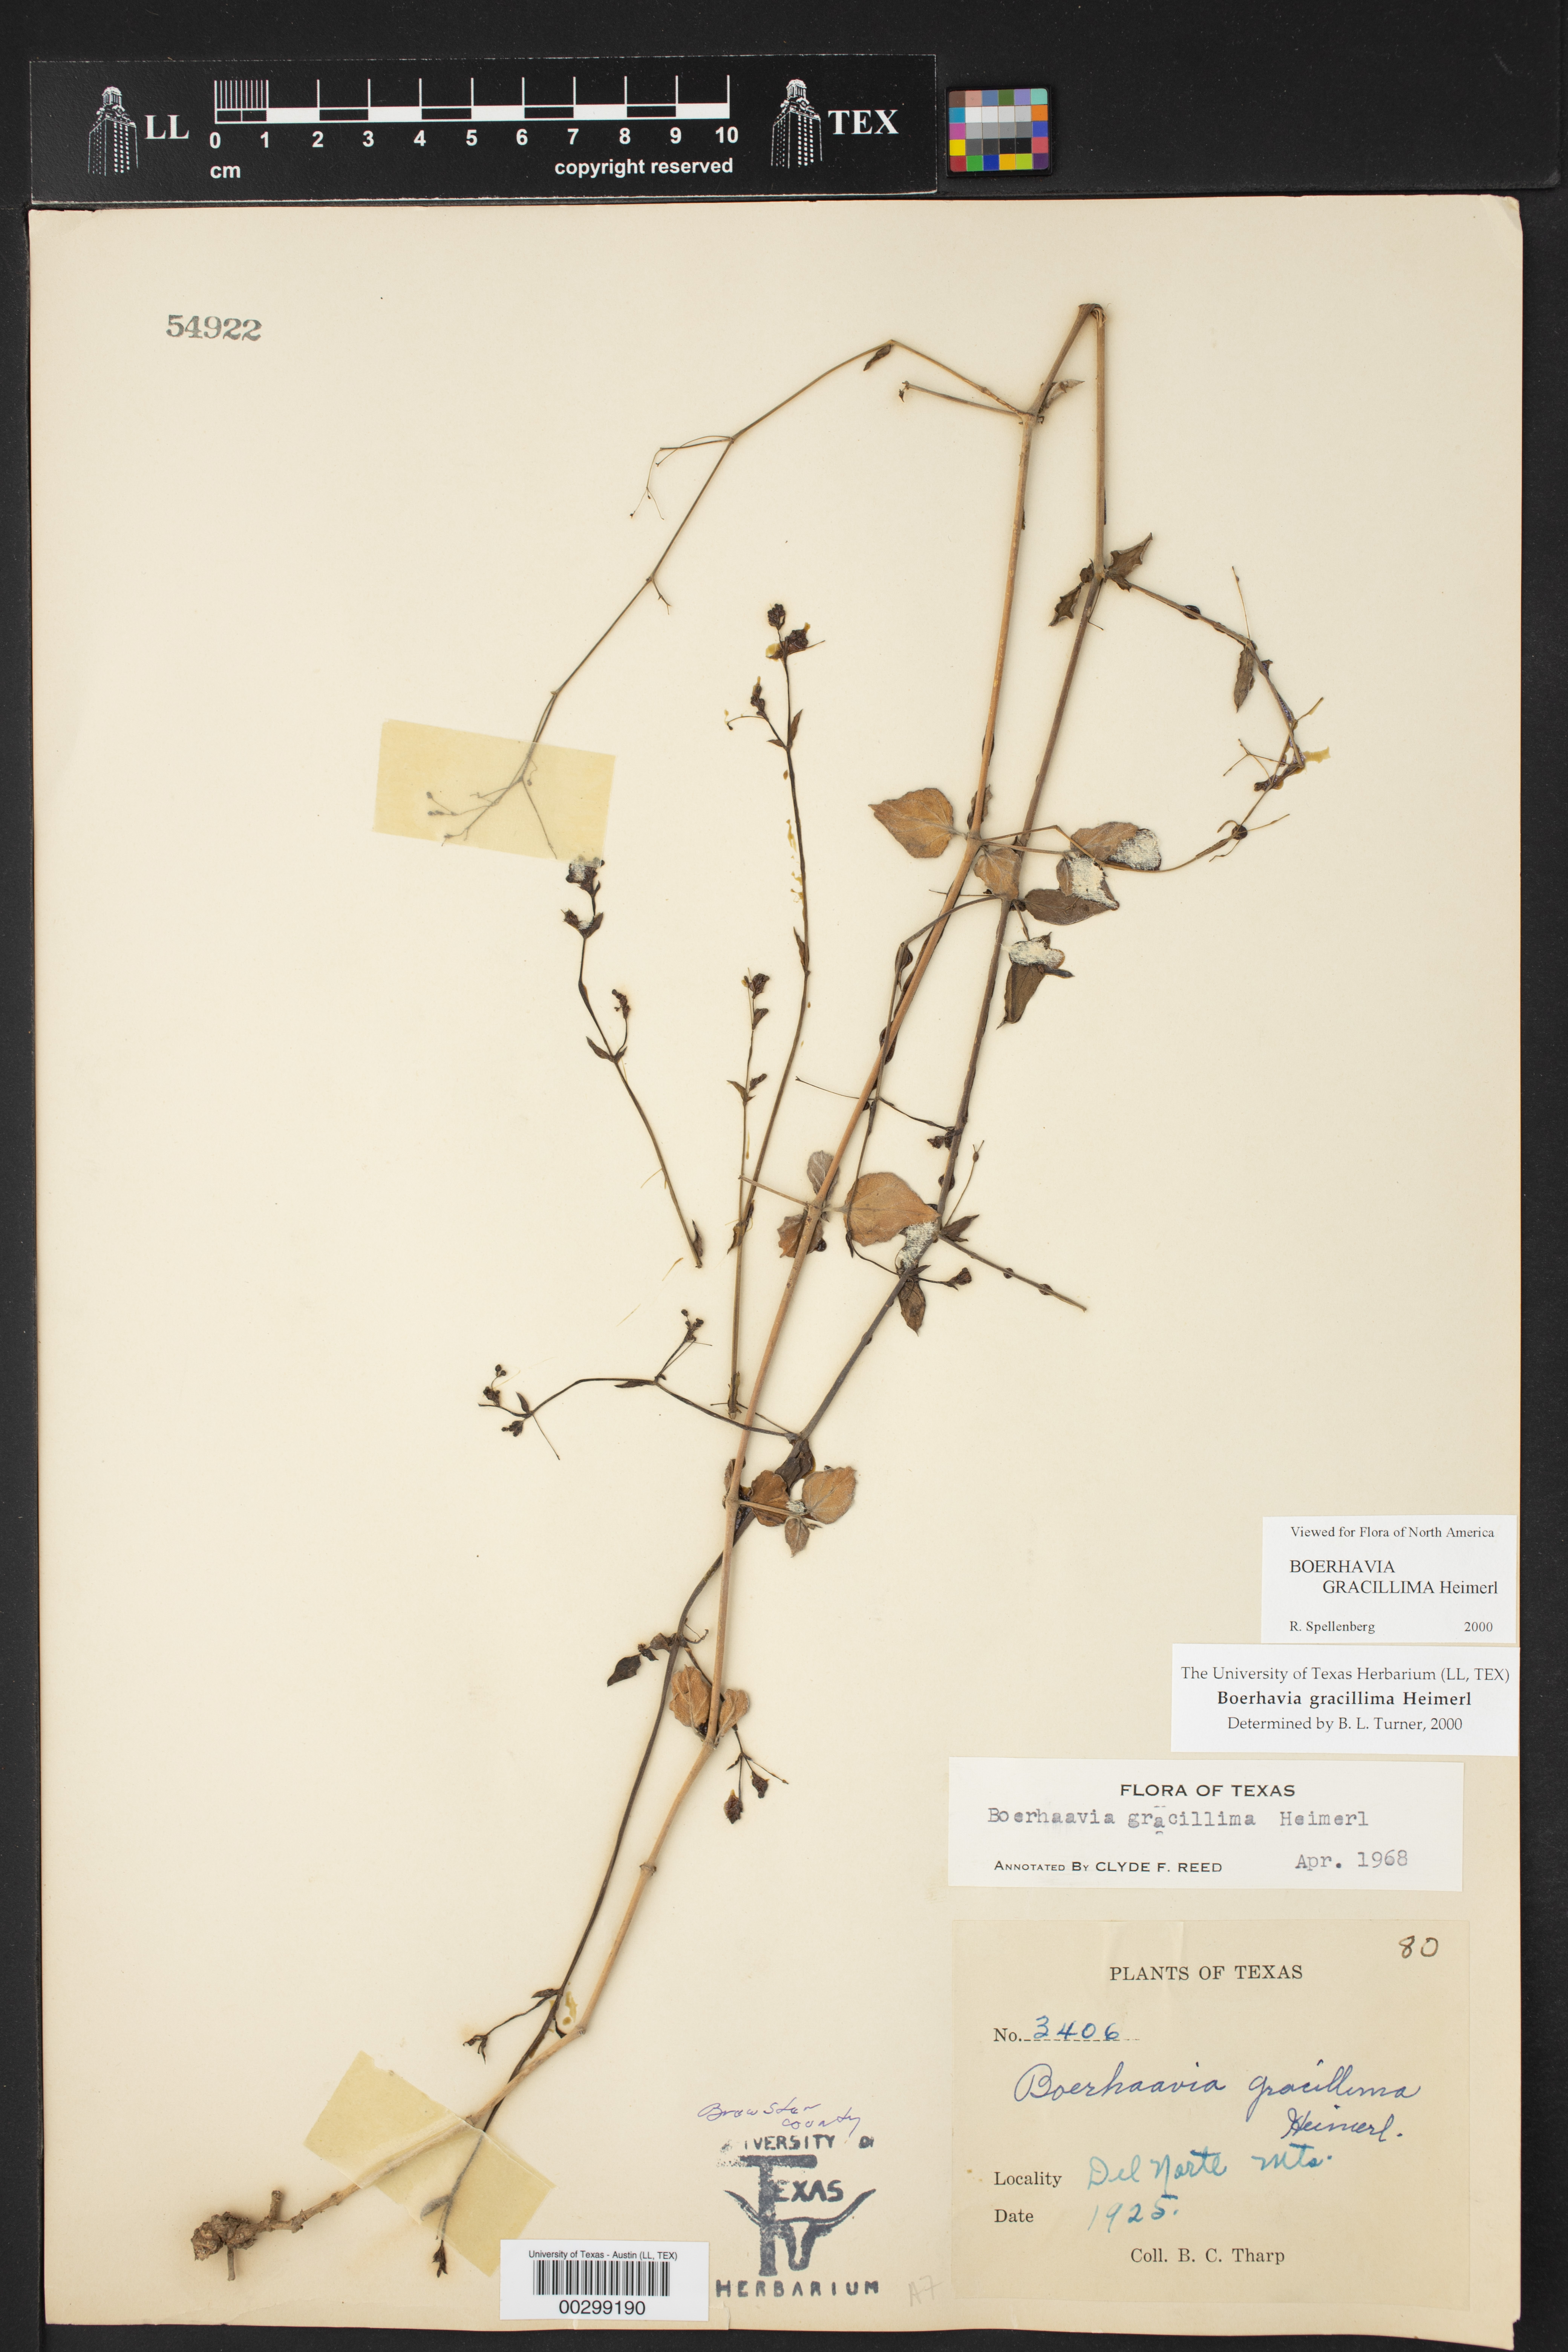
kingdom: Plantae
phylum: Tracheophyta
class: Magnoliopsida
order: Caryophyllales
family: Nyctaginaceae
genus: Boerhavia
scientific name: Boerhavia gracillima
